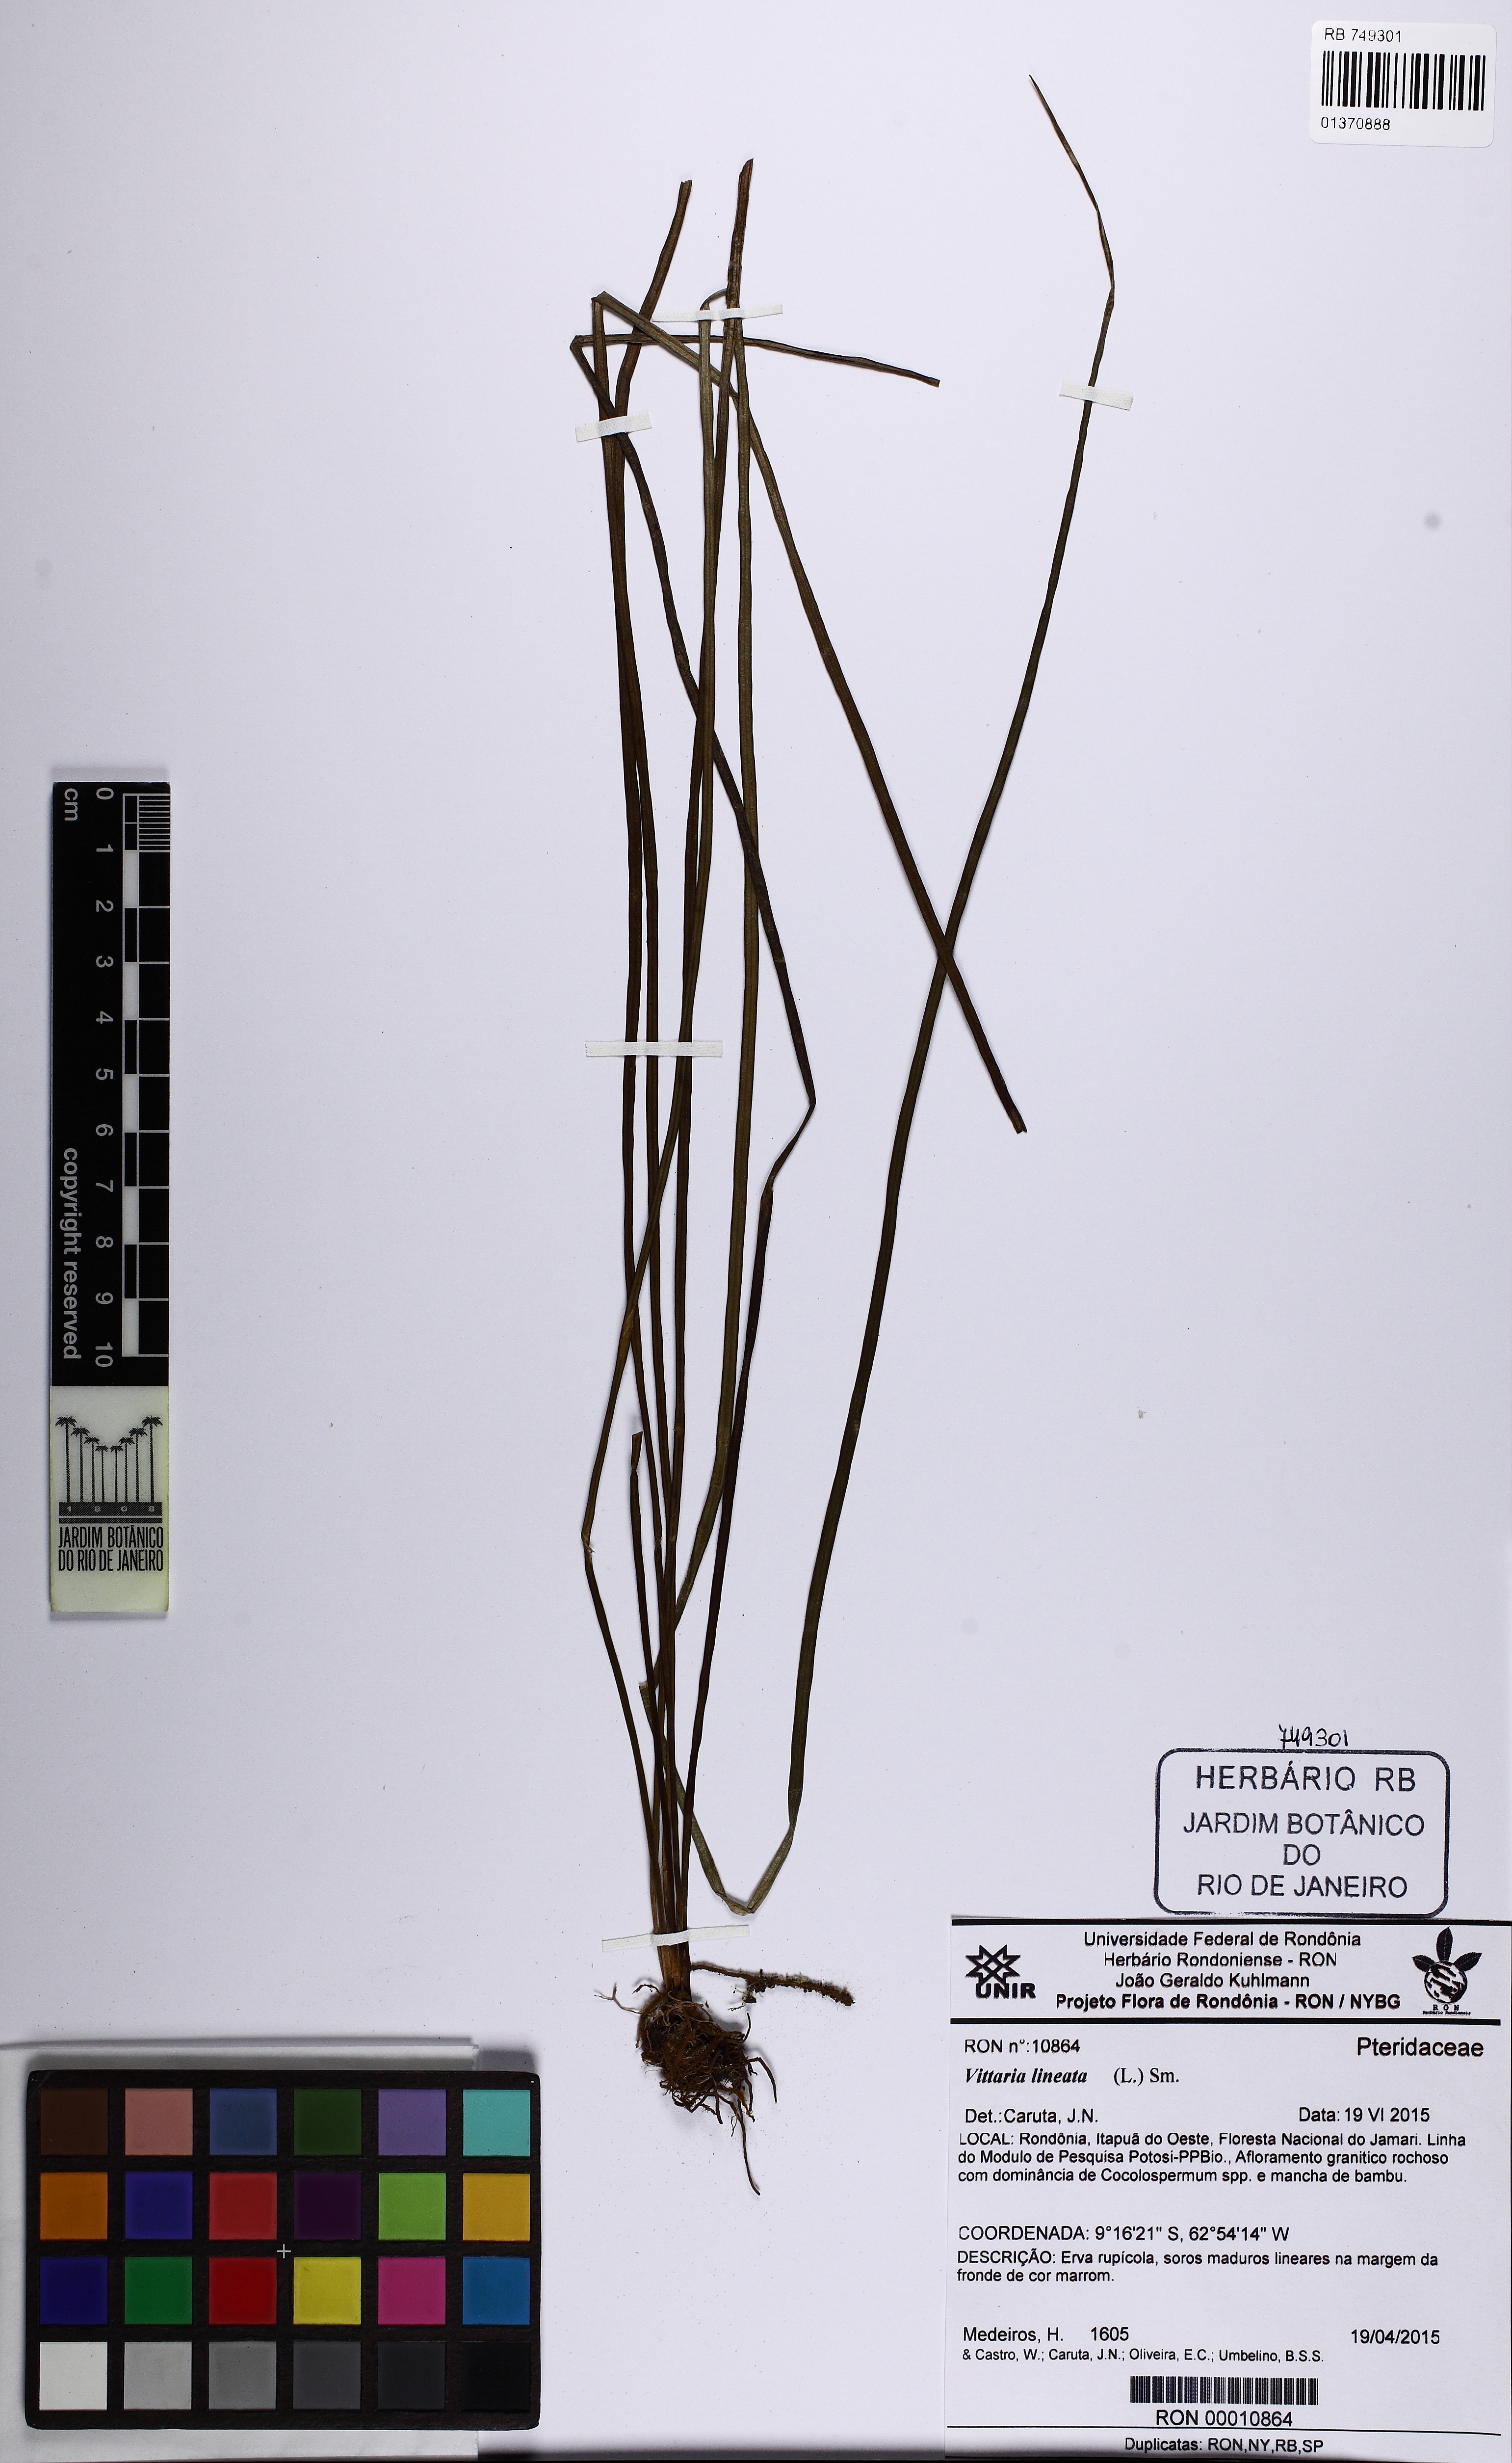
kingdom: Plantae
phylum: Tracheophyta
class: Polypodiopsida
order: Polypodiales
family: Pteridaceae
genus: Vittaria
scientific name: Vittaria lineata
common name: Shoestring fern
